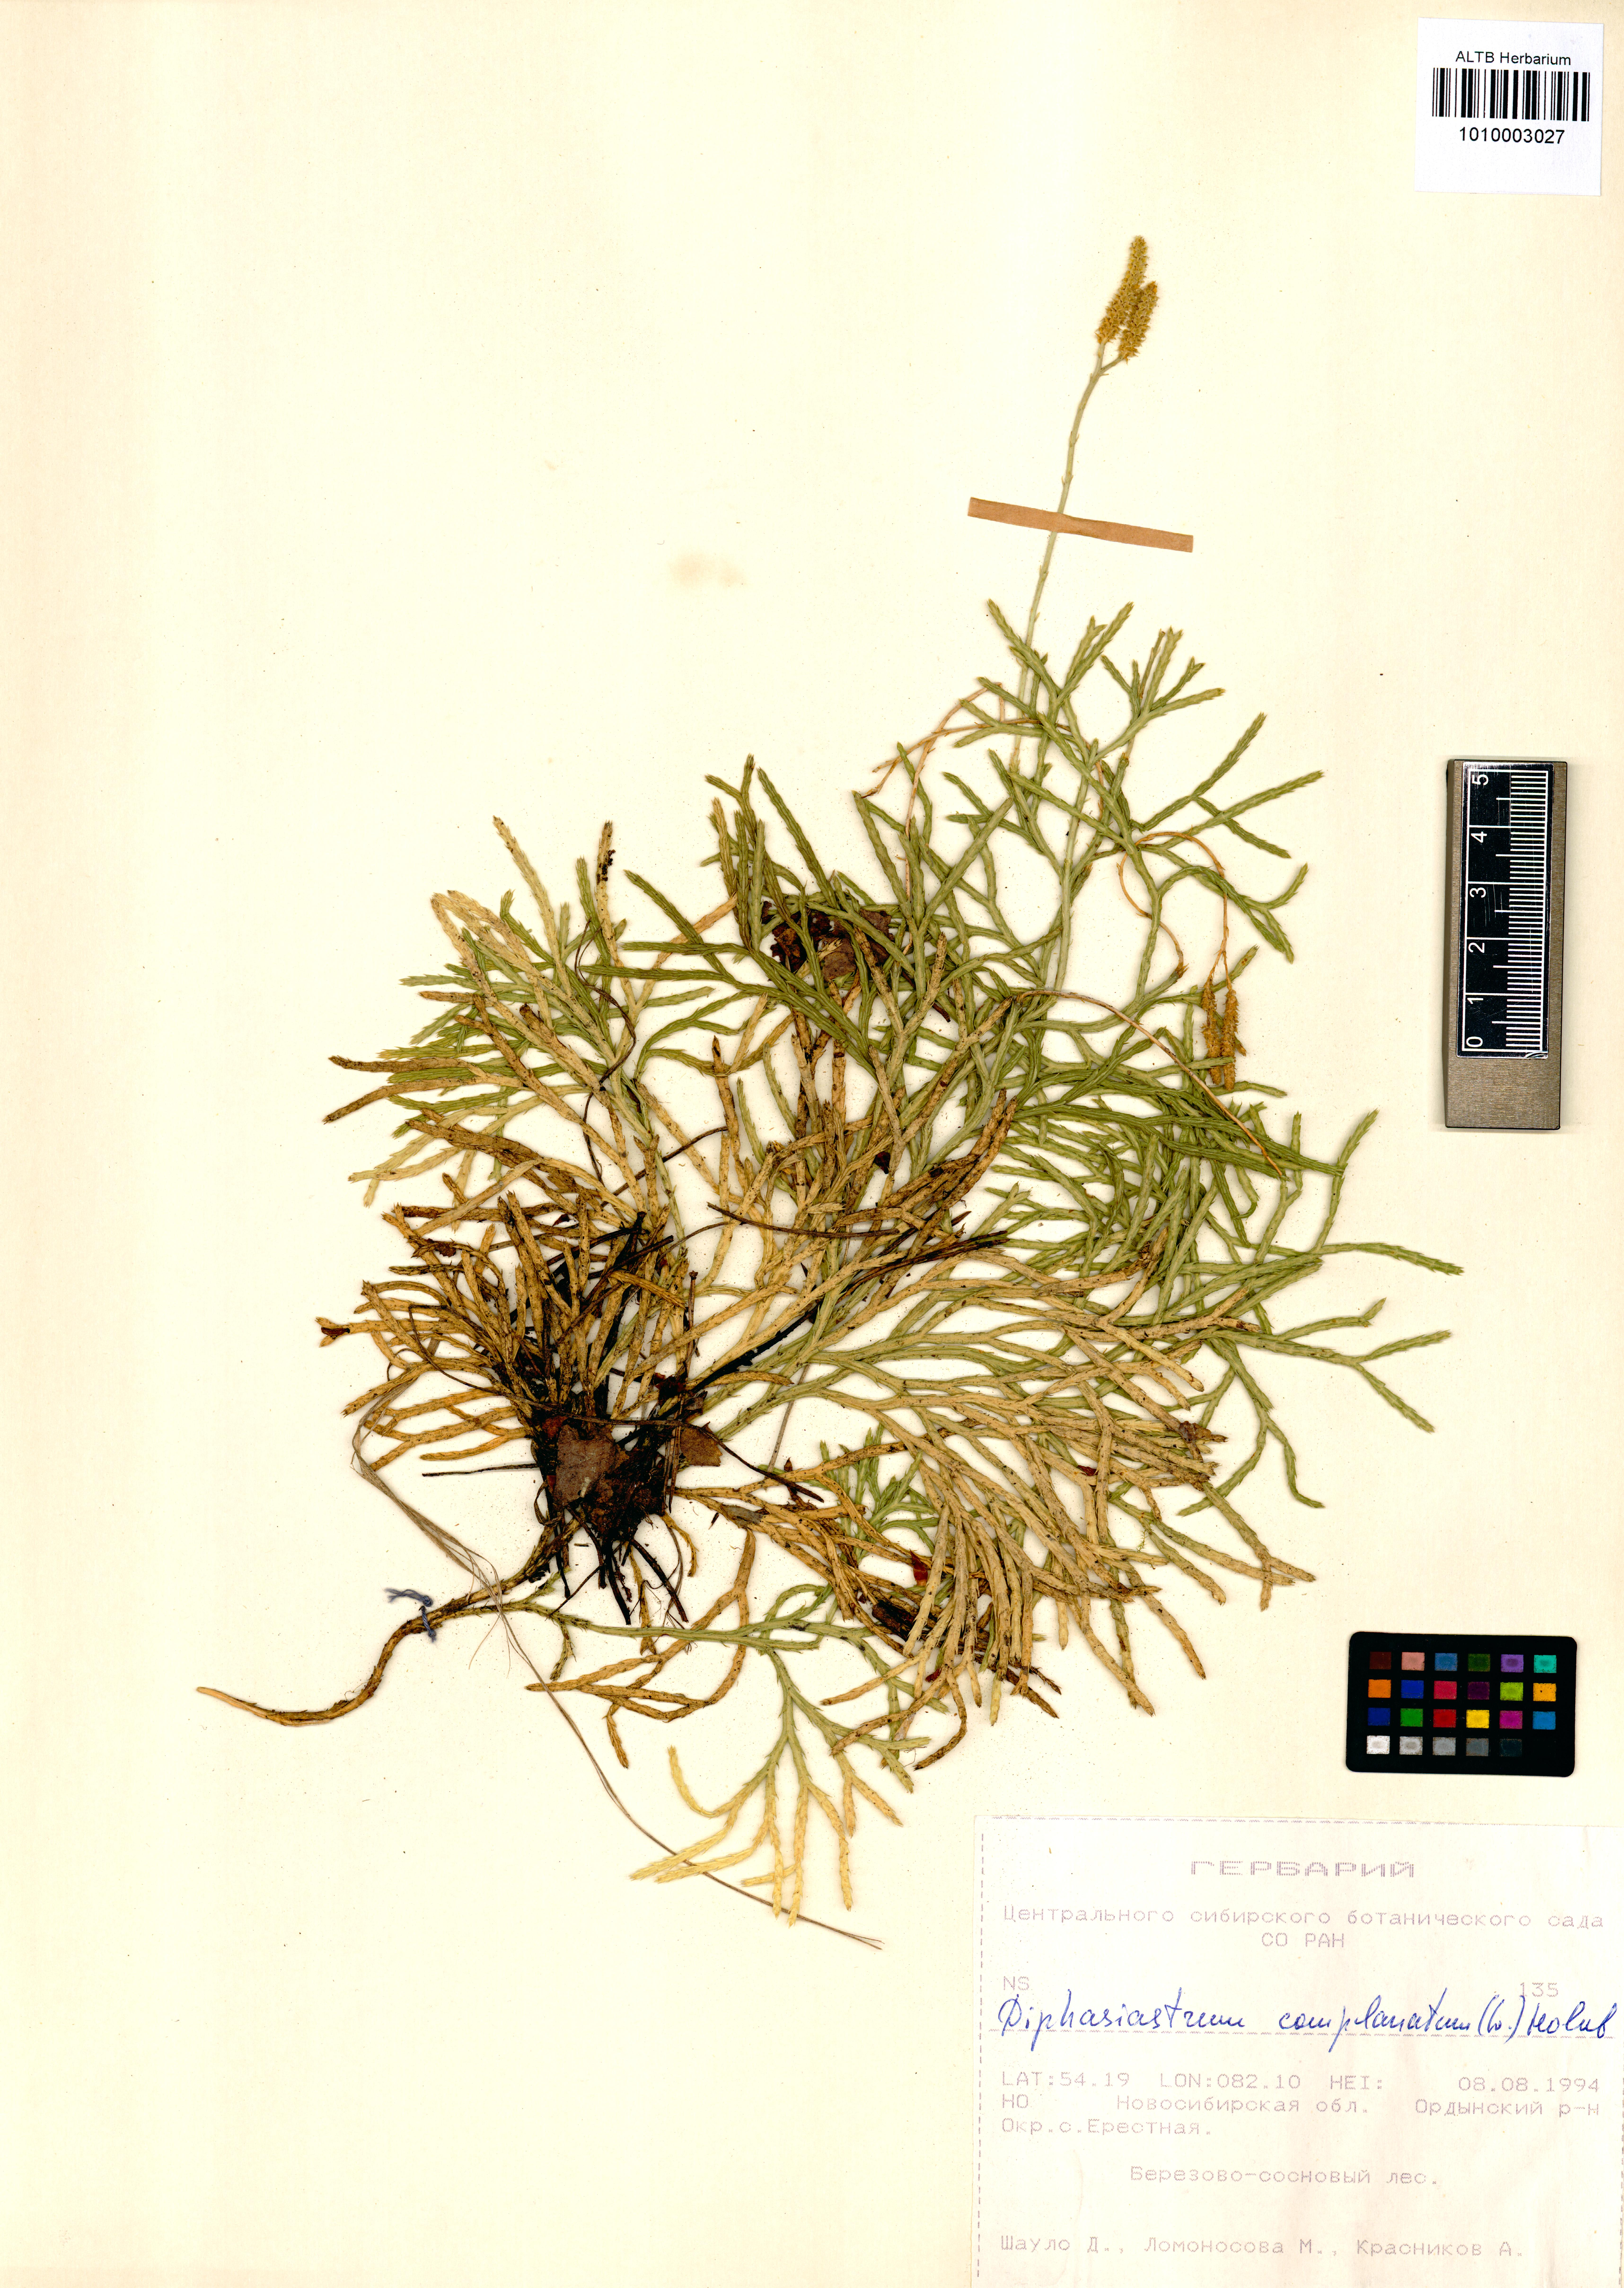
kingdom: Plantae
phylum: Tracheophyta
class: Lycopodiopsida
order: Lycopodiales
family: Lycopodiaceae
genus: Diphasiastrum
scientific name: Diphasiastrum complanatum
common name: Northern running-pine
